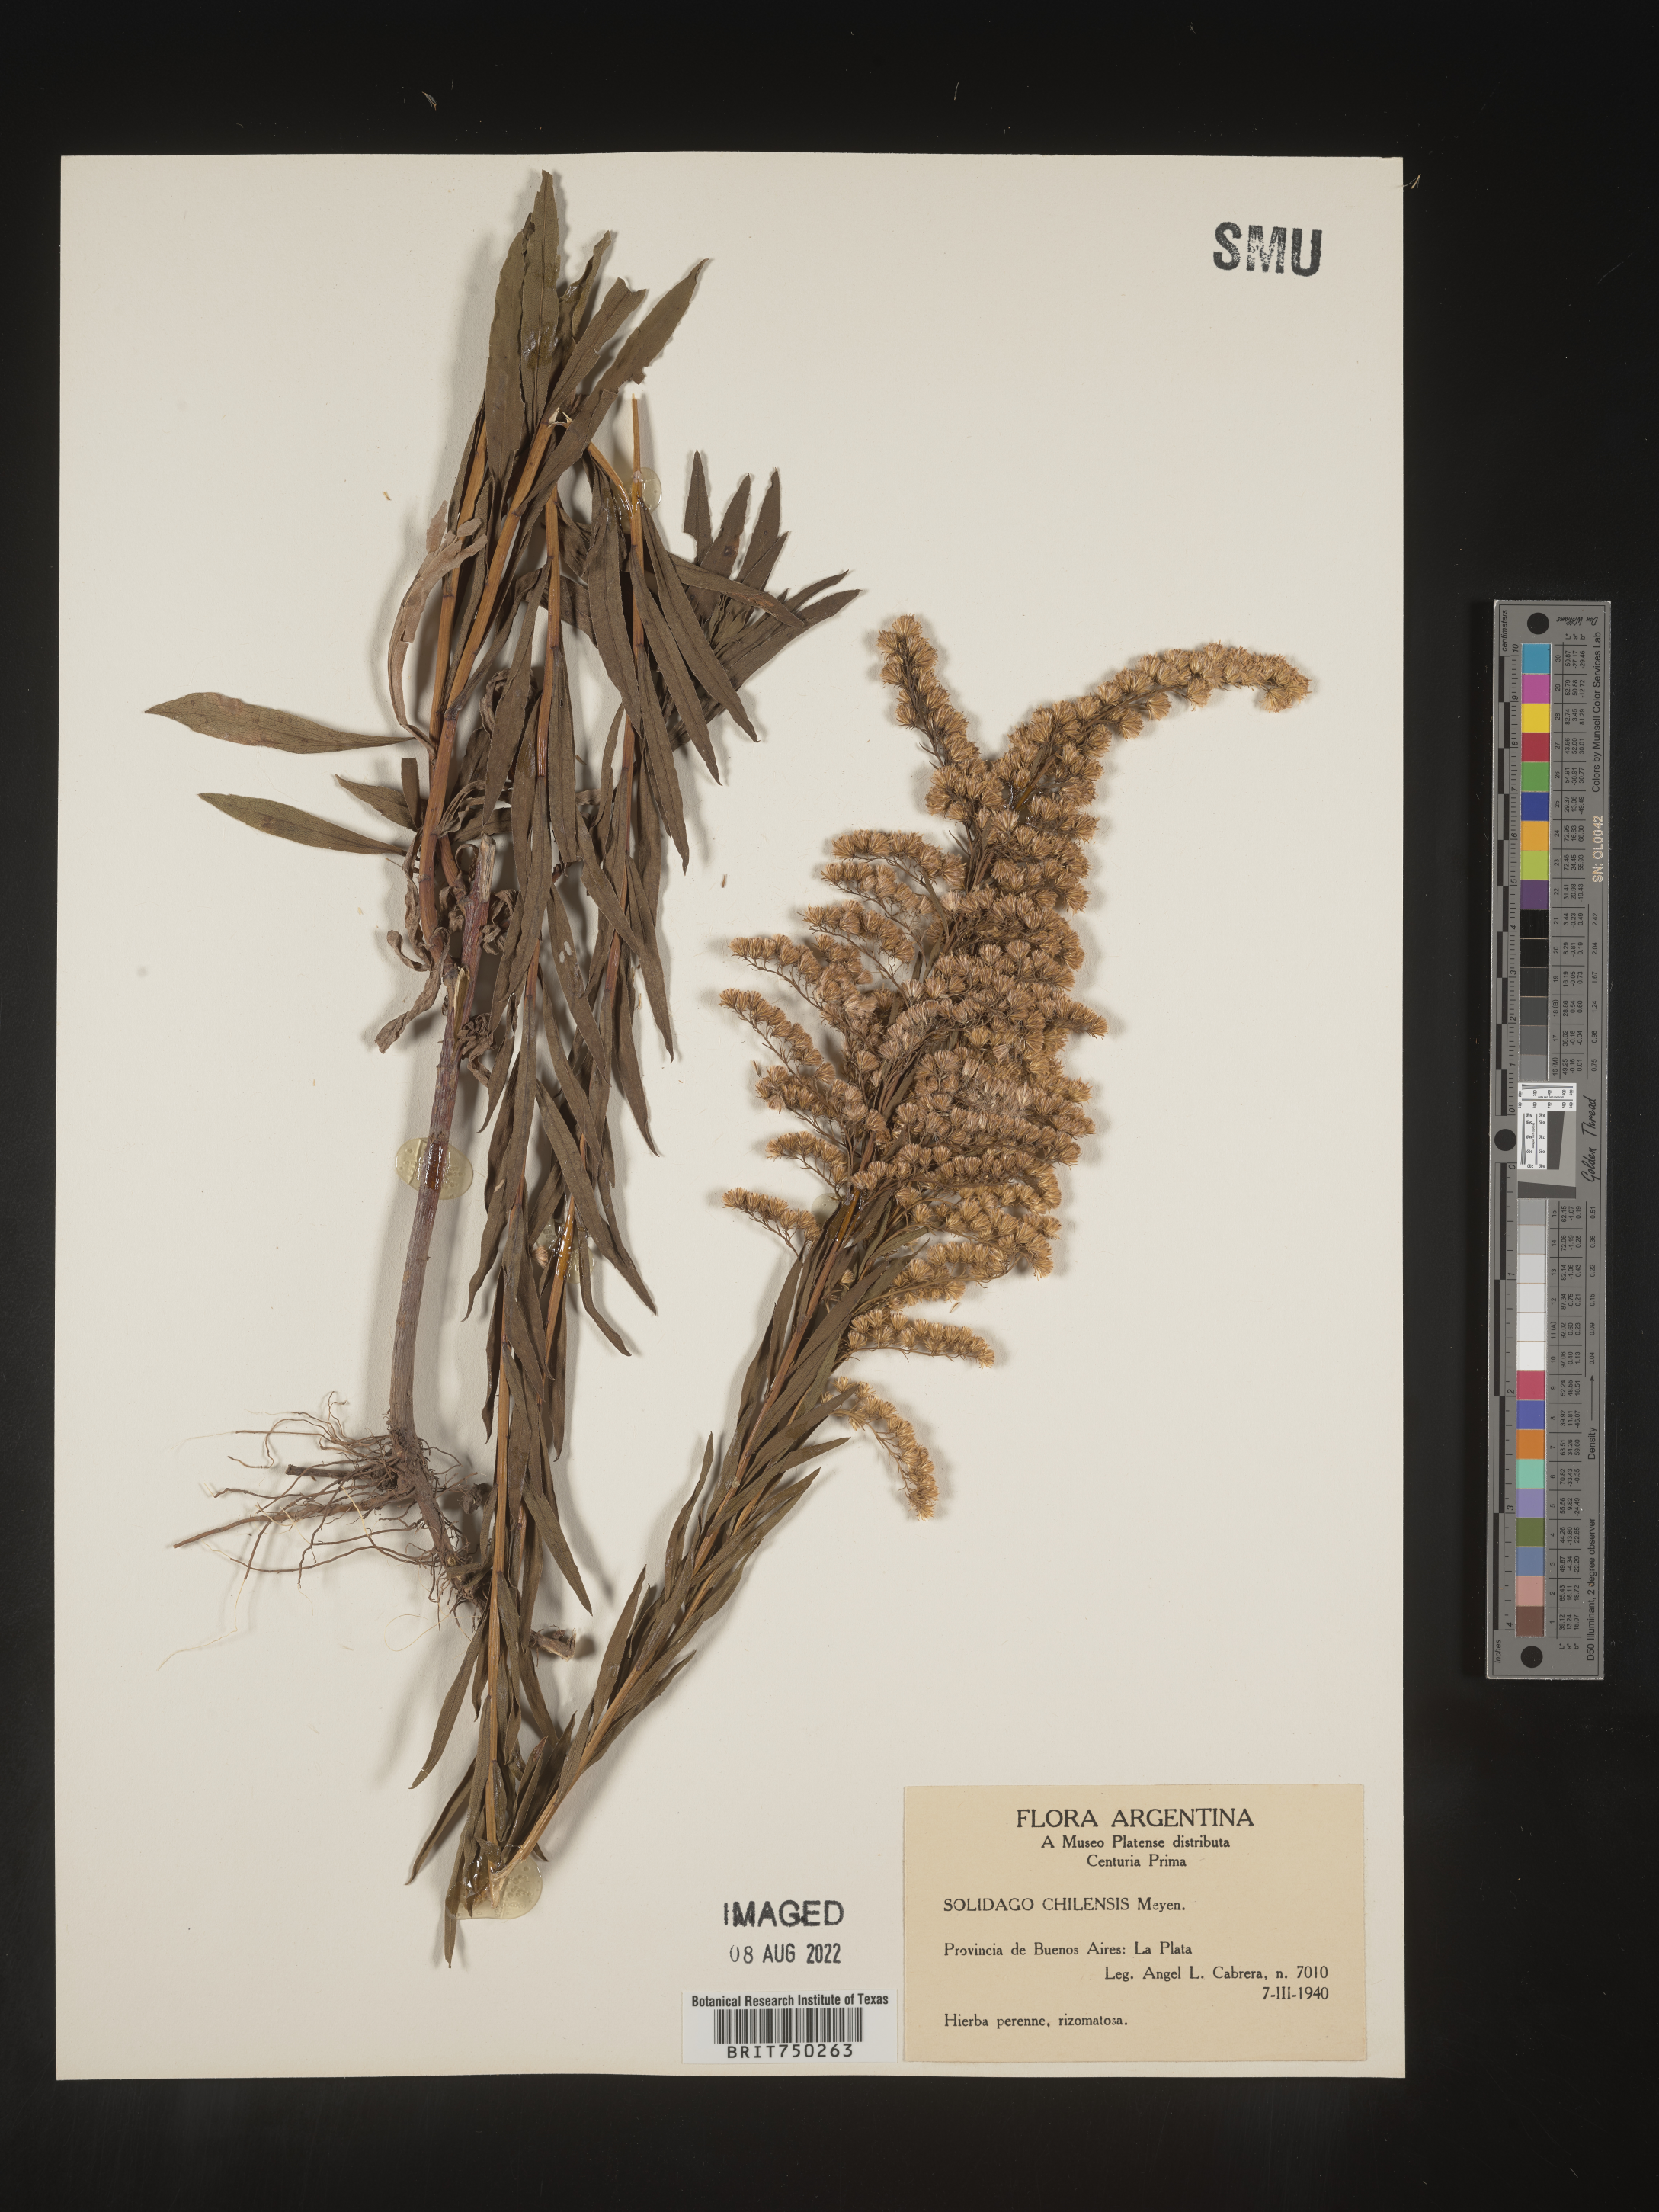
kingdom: Plantae
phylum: Tracheophyta
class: Magnoliopsida
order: Asterales
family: Asteraceae
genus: Solidago
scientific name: Solidago
